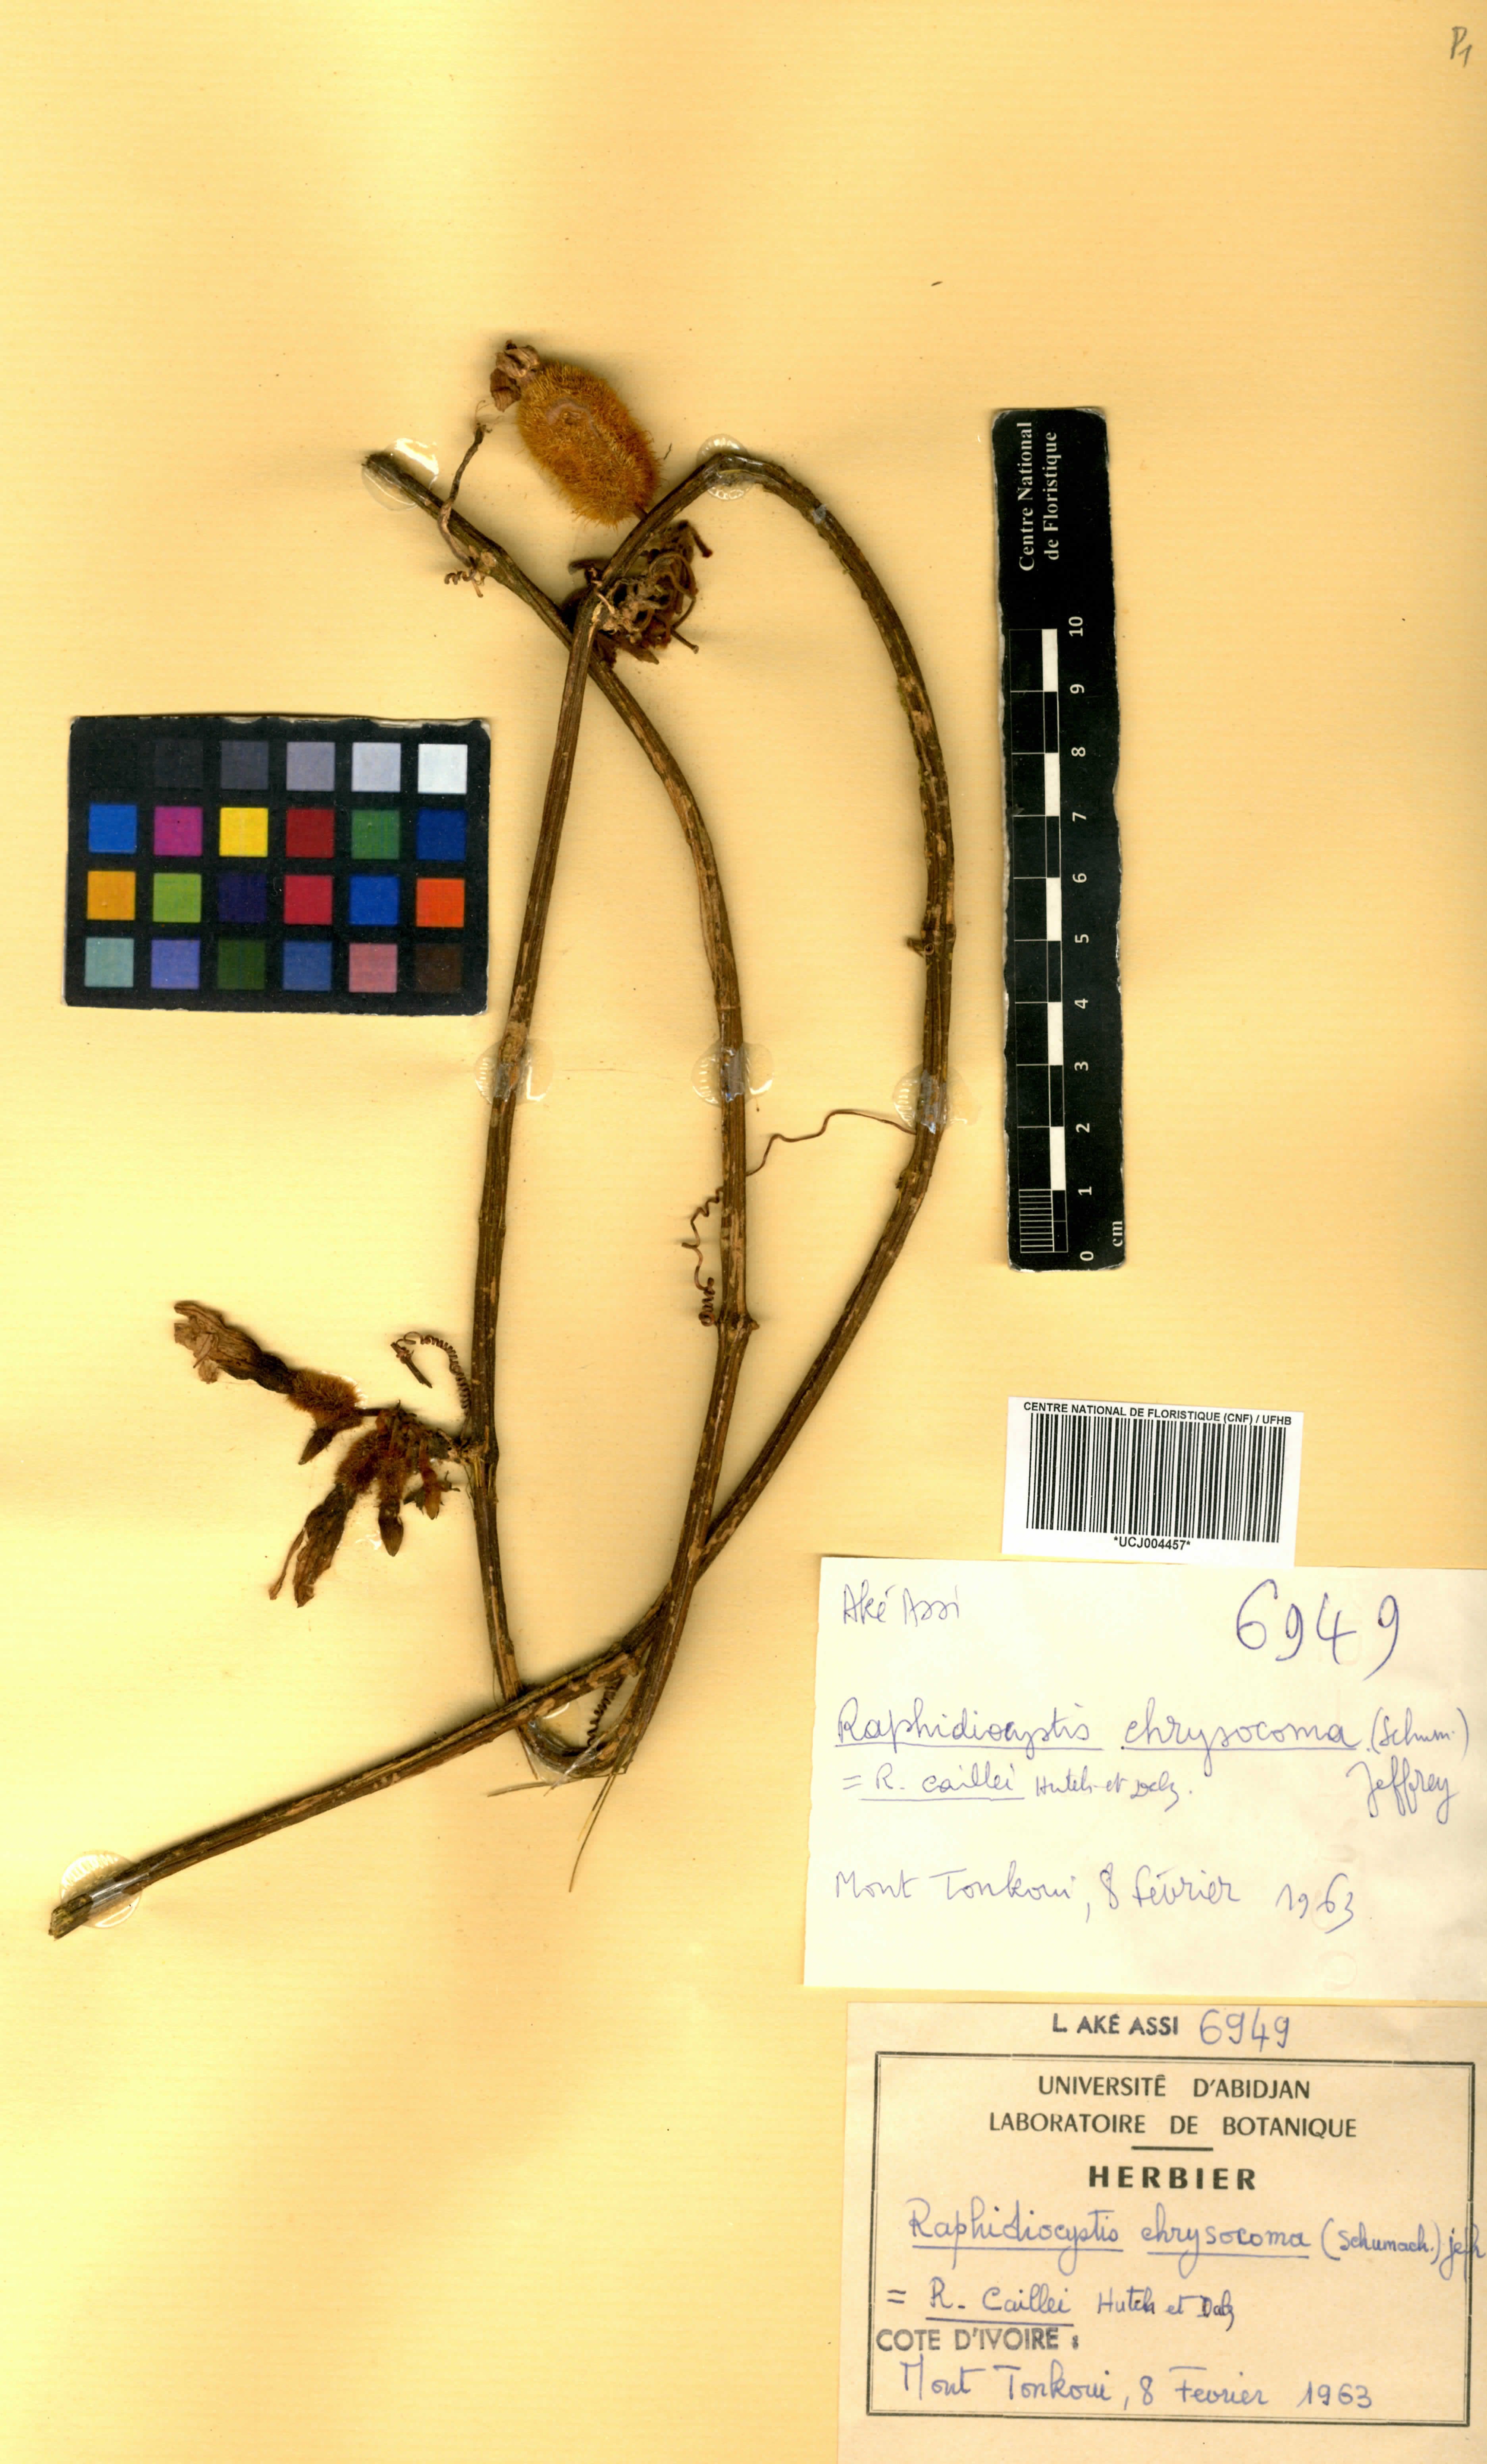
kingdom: Plantae
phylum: Tracheophyta
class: Magnoliopsida
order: Cucurbitales
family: Cucurbitaceae
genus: Raphidiocystis
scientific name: Raphidiocystis chrysocoma
